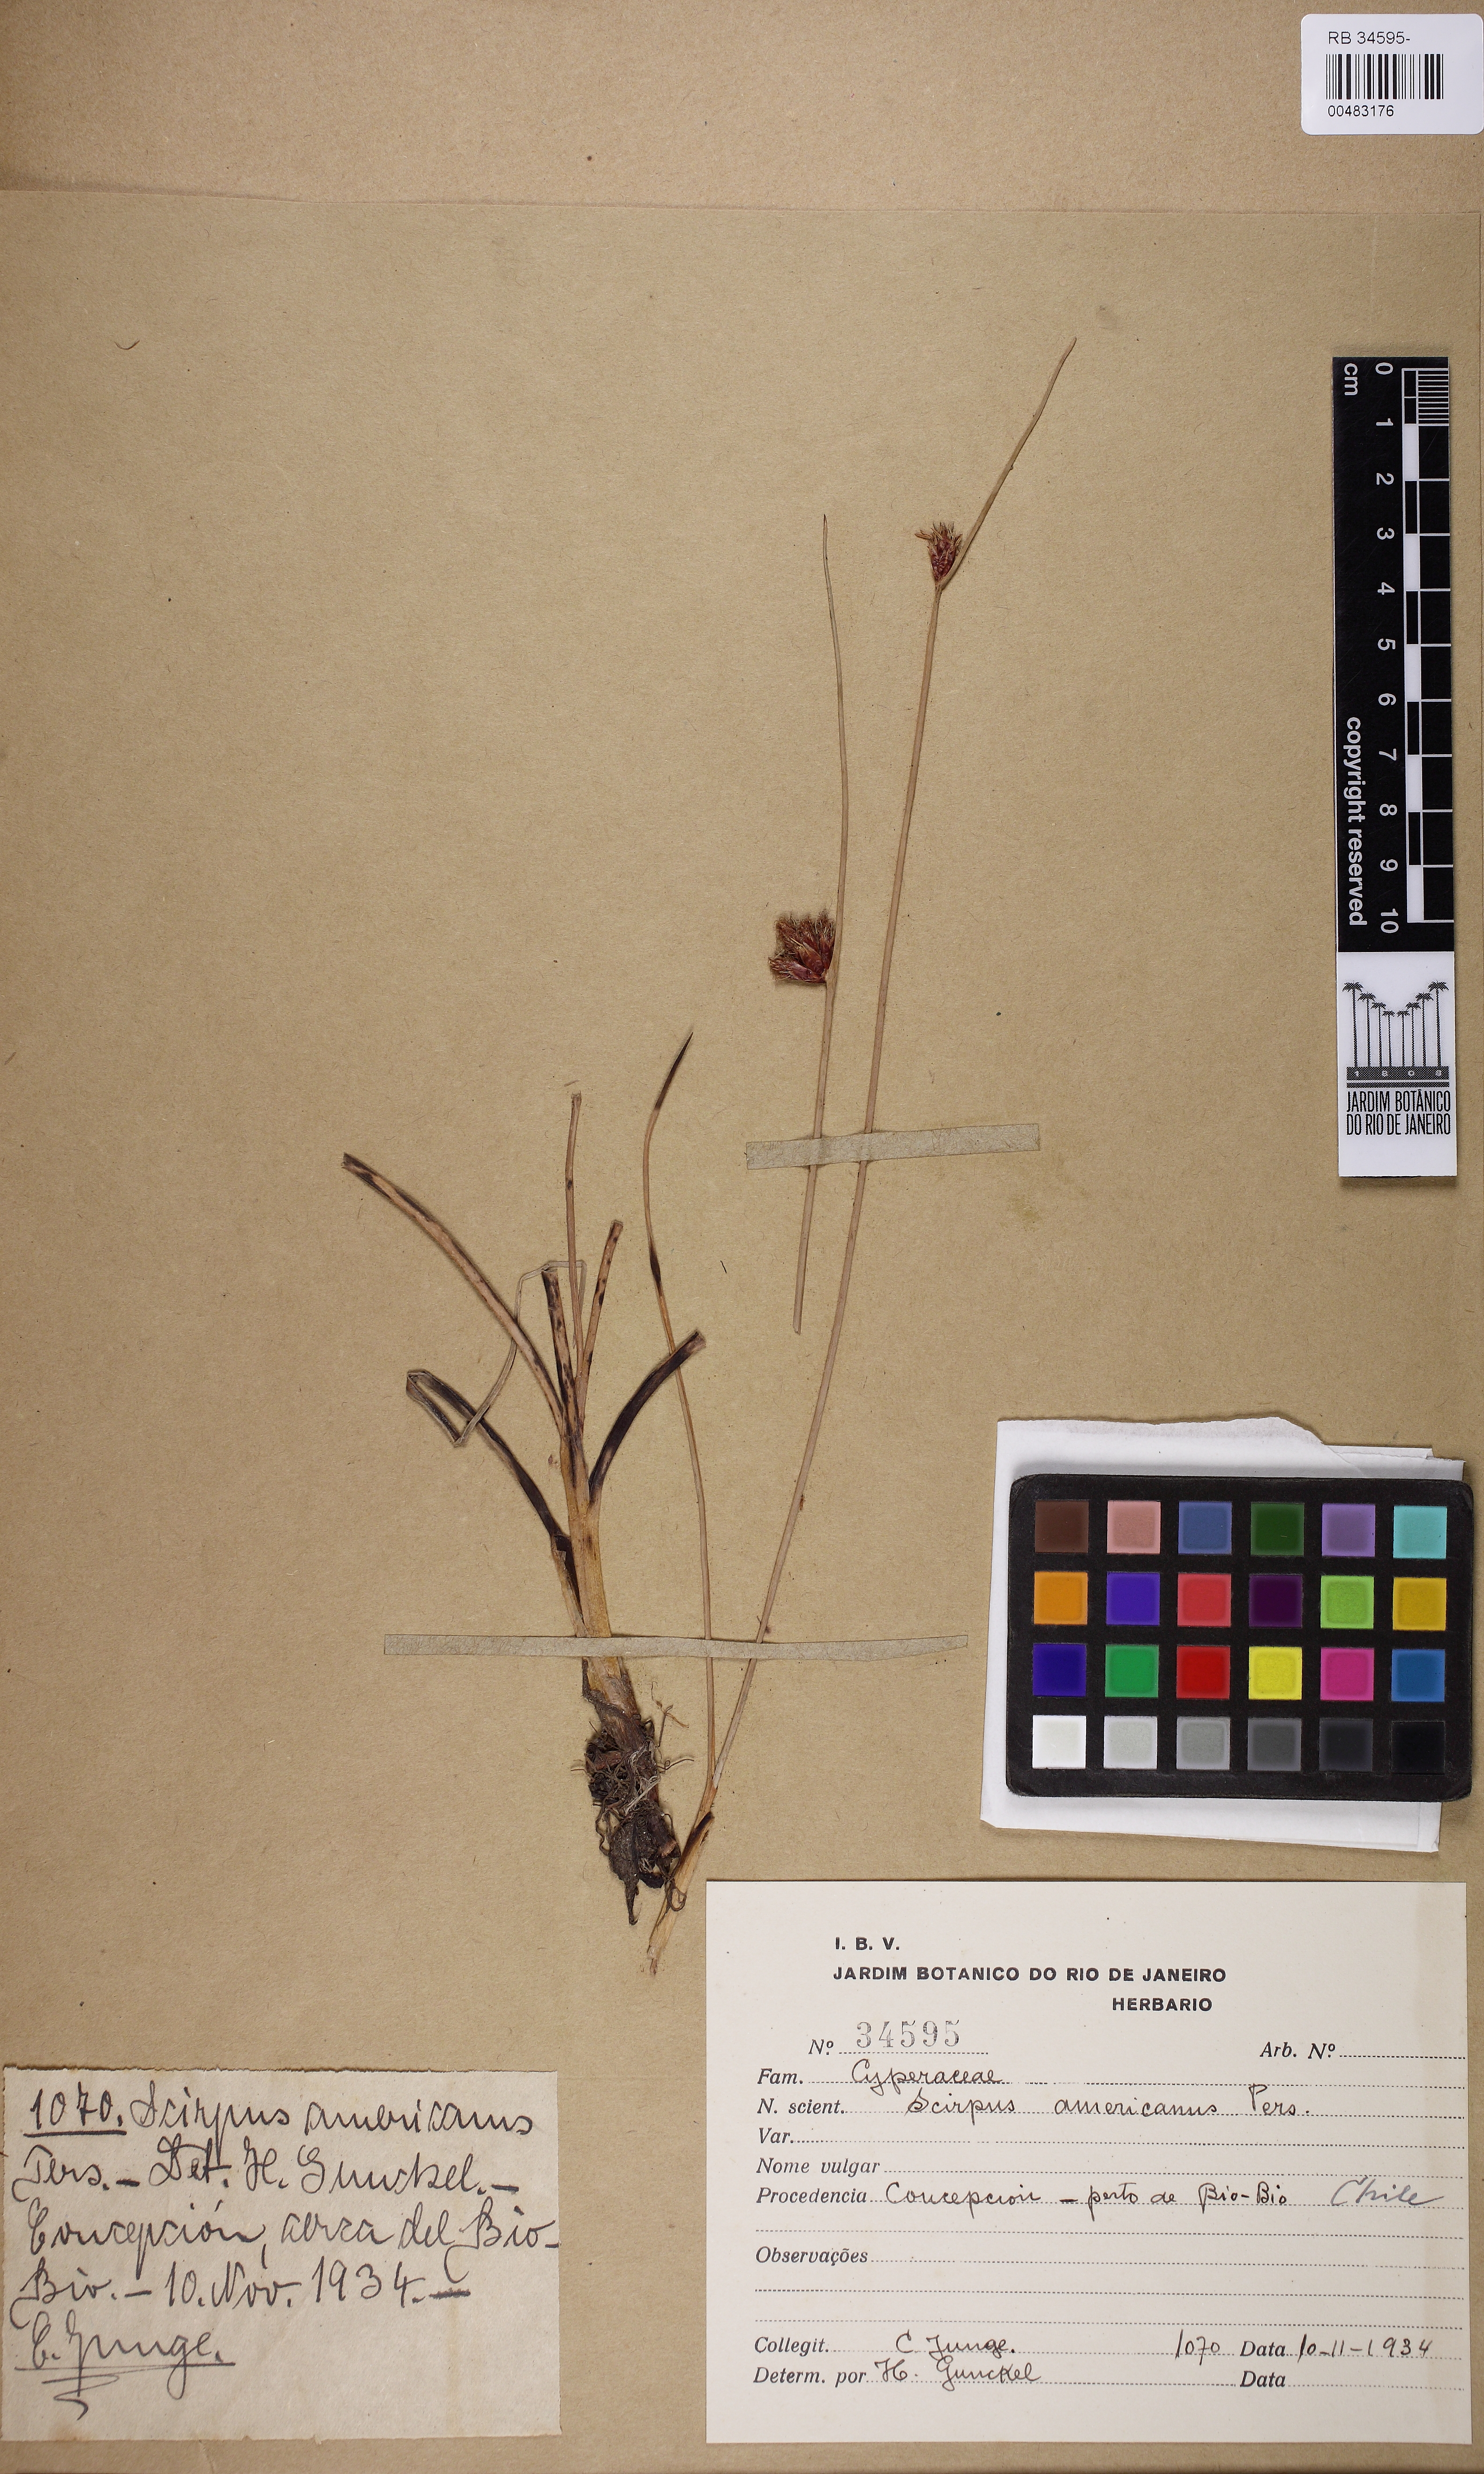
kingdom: Plantae
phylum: Tracheophyta
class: Liliopsida
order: Poales
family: Cyperaceae
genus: Schoenoplectus
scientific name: Schoenoplectus americanus
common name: American three-square bulrush
